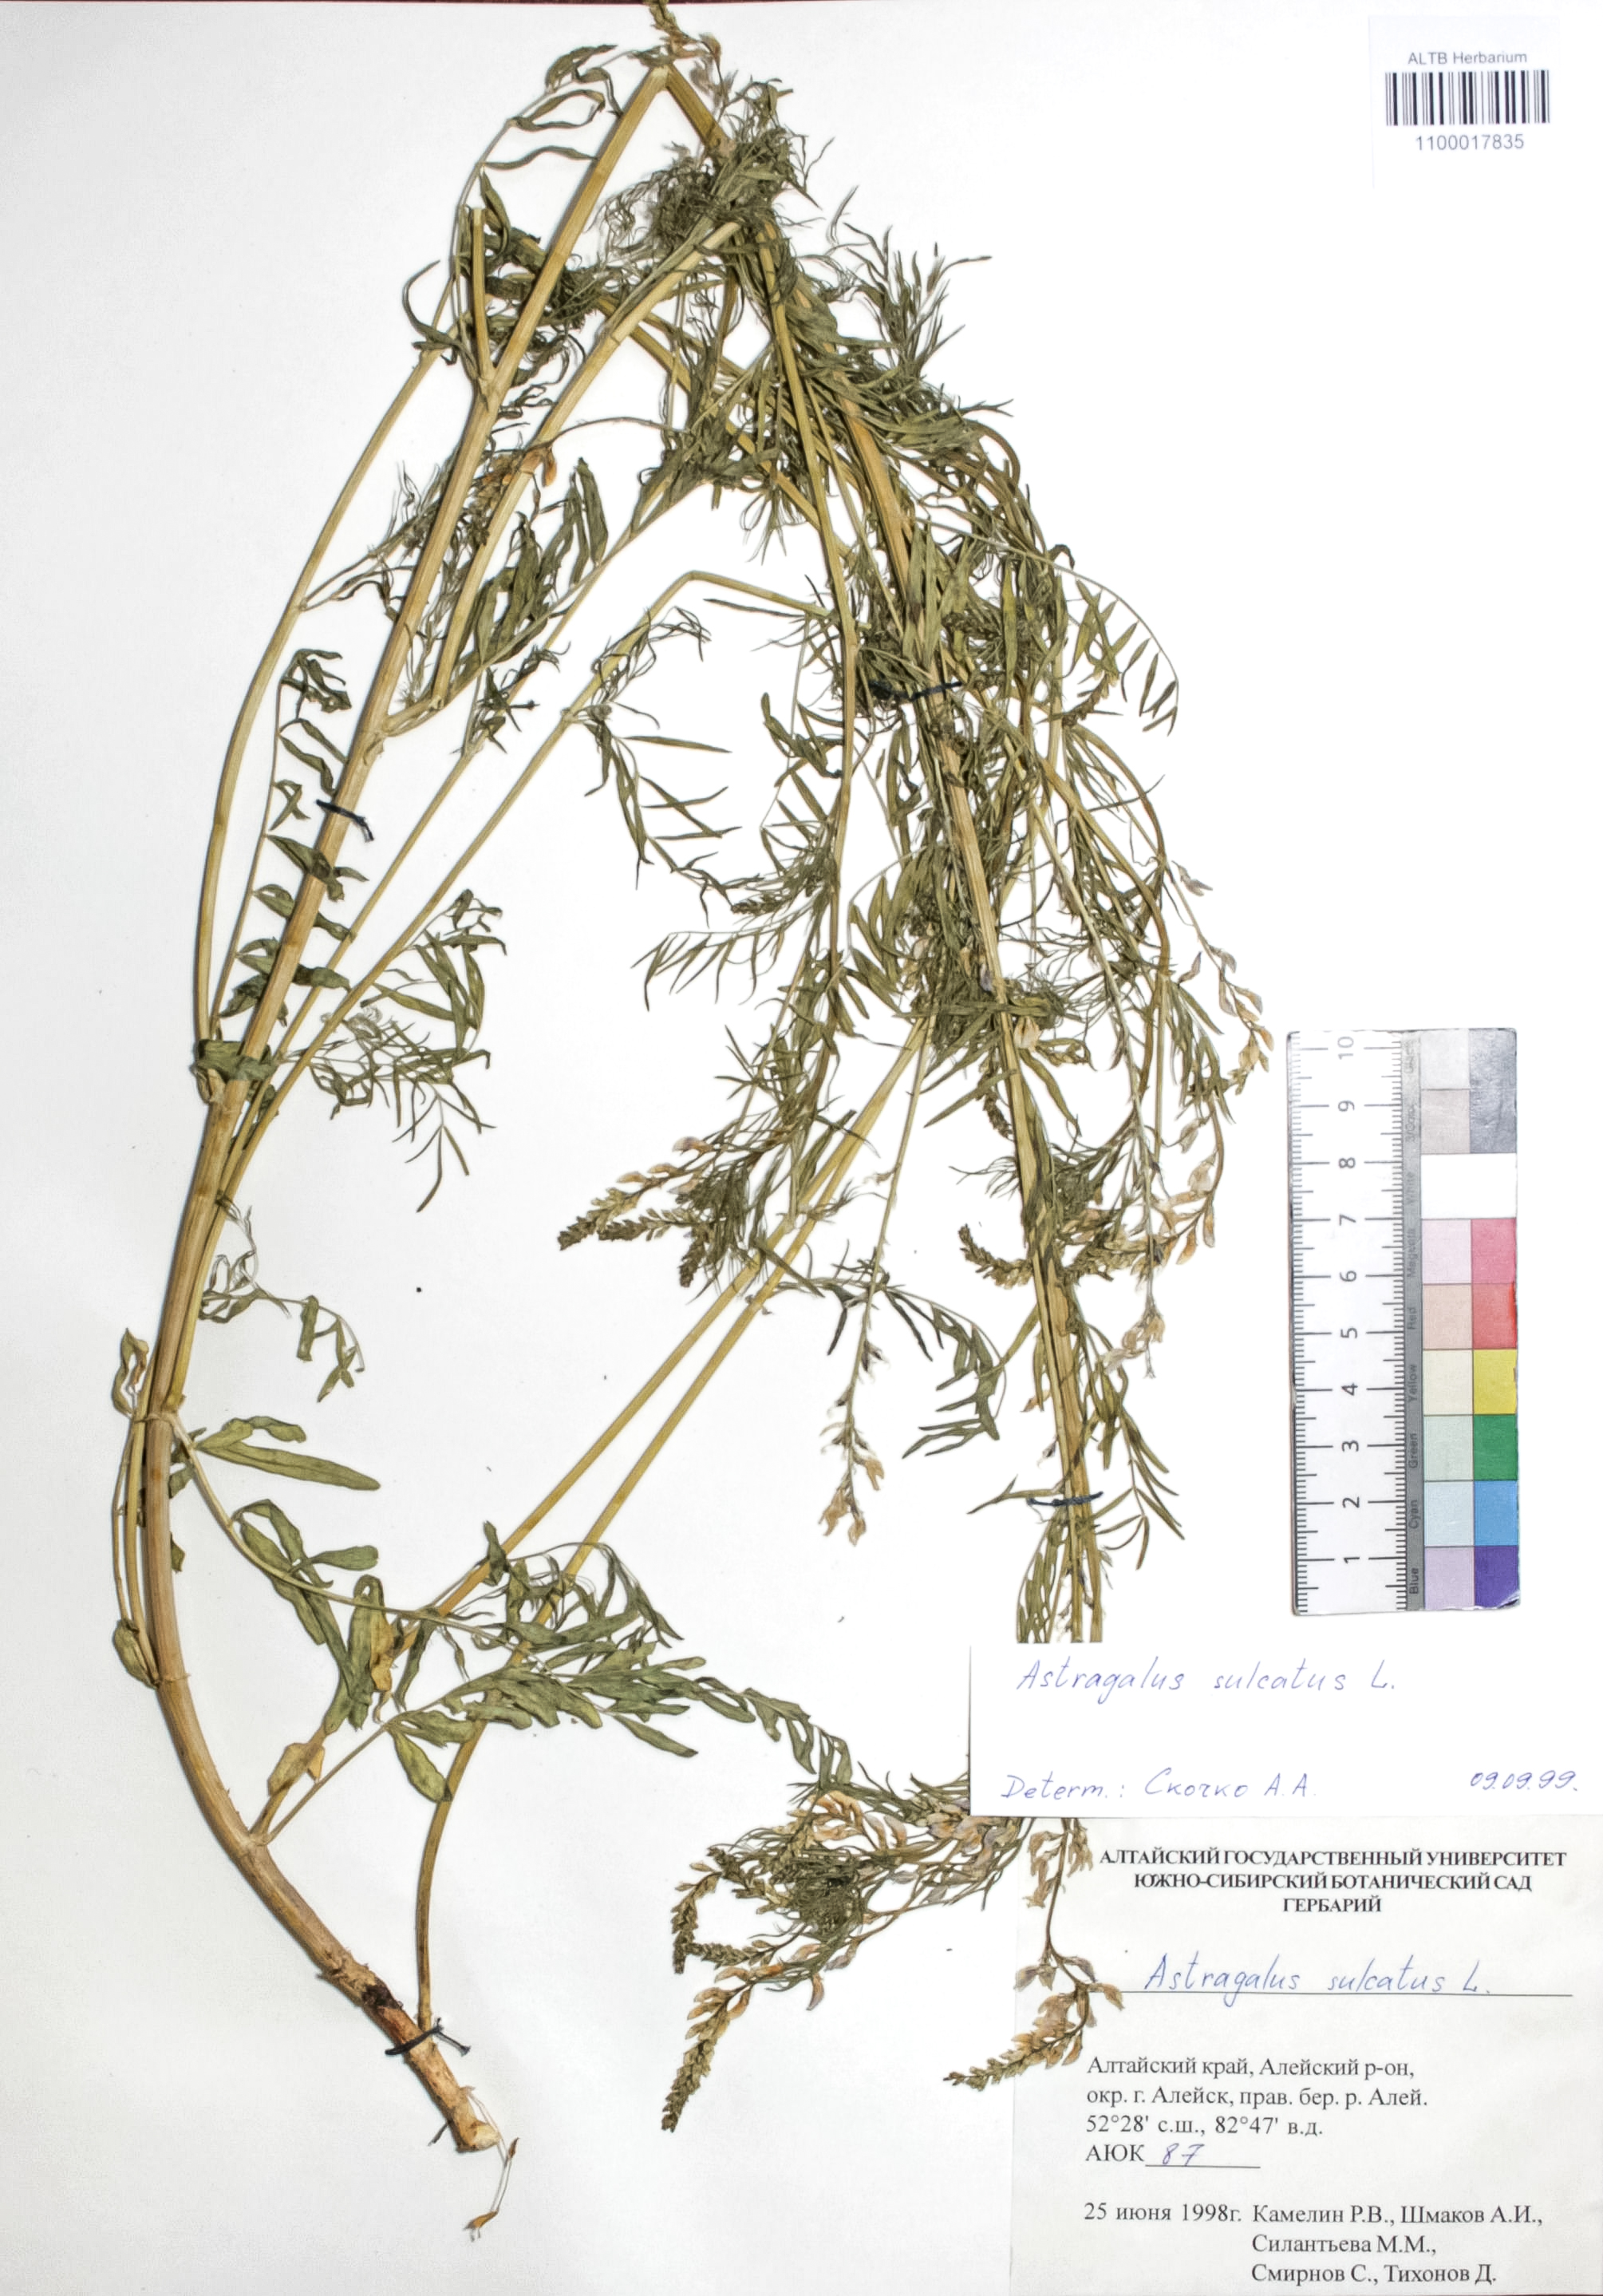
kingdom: Plantae
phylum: Tracheophyta
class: Magnoliopsida
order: Fabales
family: Fabaceae
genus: Astragalus
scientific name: Astragalus sulcatus
